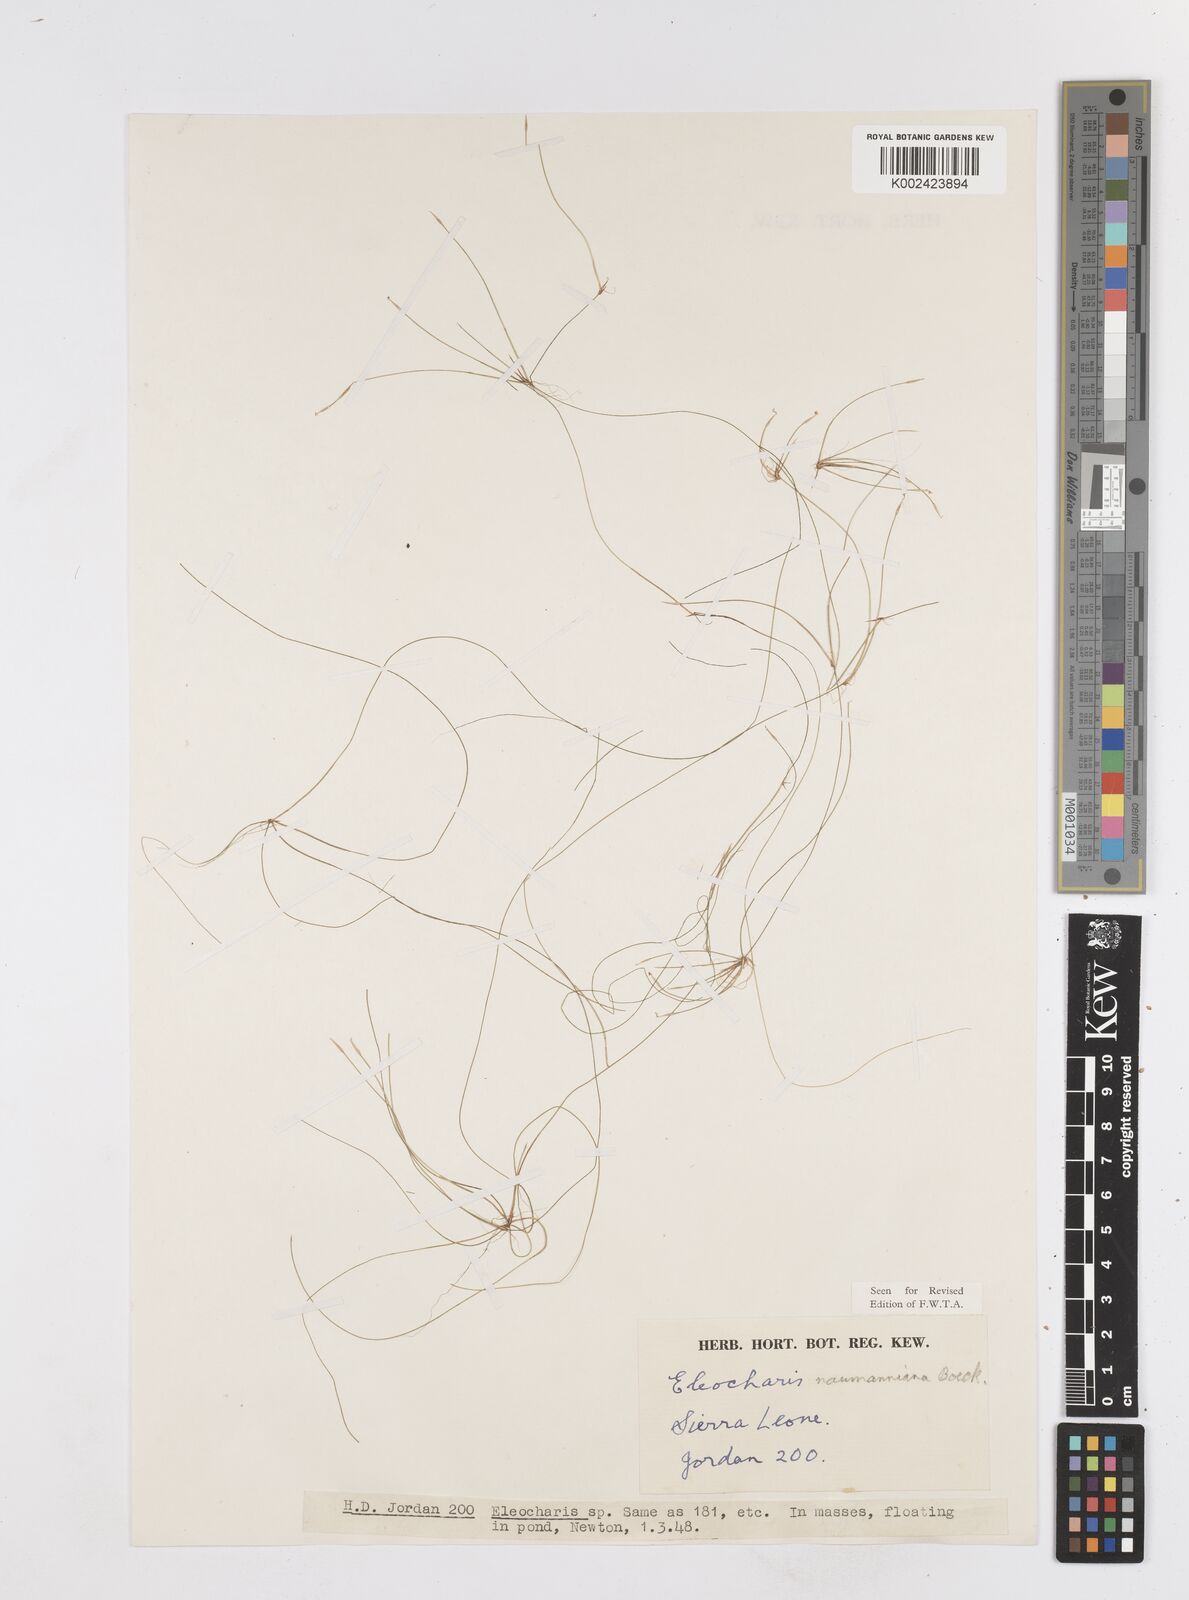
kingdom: Plantae
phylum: Tracheophyta
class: Liliopsida
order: Poales
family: Cyperaceae
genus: Eleocharis
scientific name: Eleocharis naumanniana
